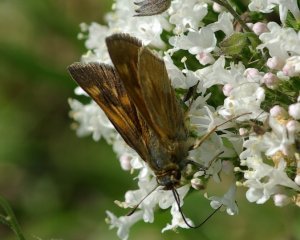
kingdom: Animalia
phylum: Arthropoda
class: Insecta
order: Lepidoptera
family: Hesperiidae
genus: Polites
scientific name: Polites
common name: Long Dash Skipper
